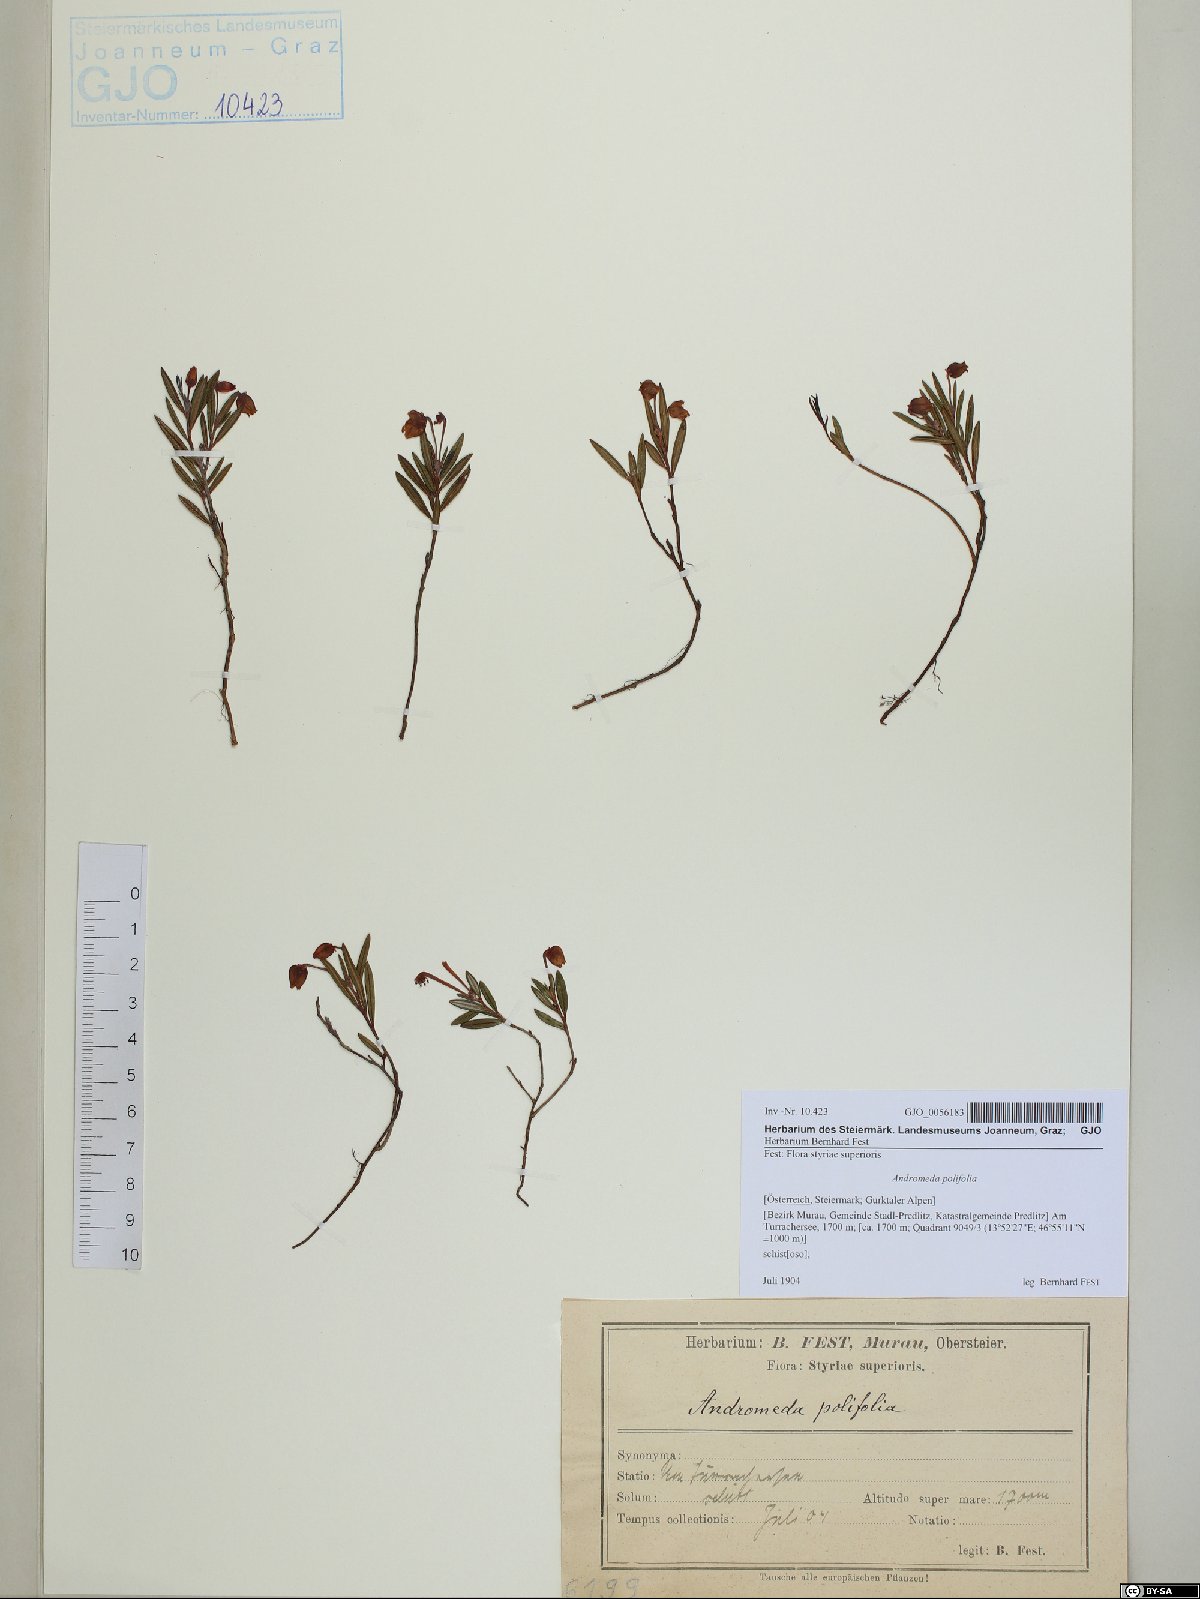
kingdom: Plantae
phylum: Tracheophyta
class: Magnoliopsida
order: Ericales
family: Ericaceae
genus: Andromeda
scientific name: Andromeda polifolia
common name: Bog-rosemary
